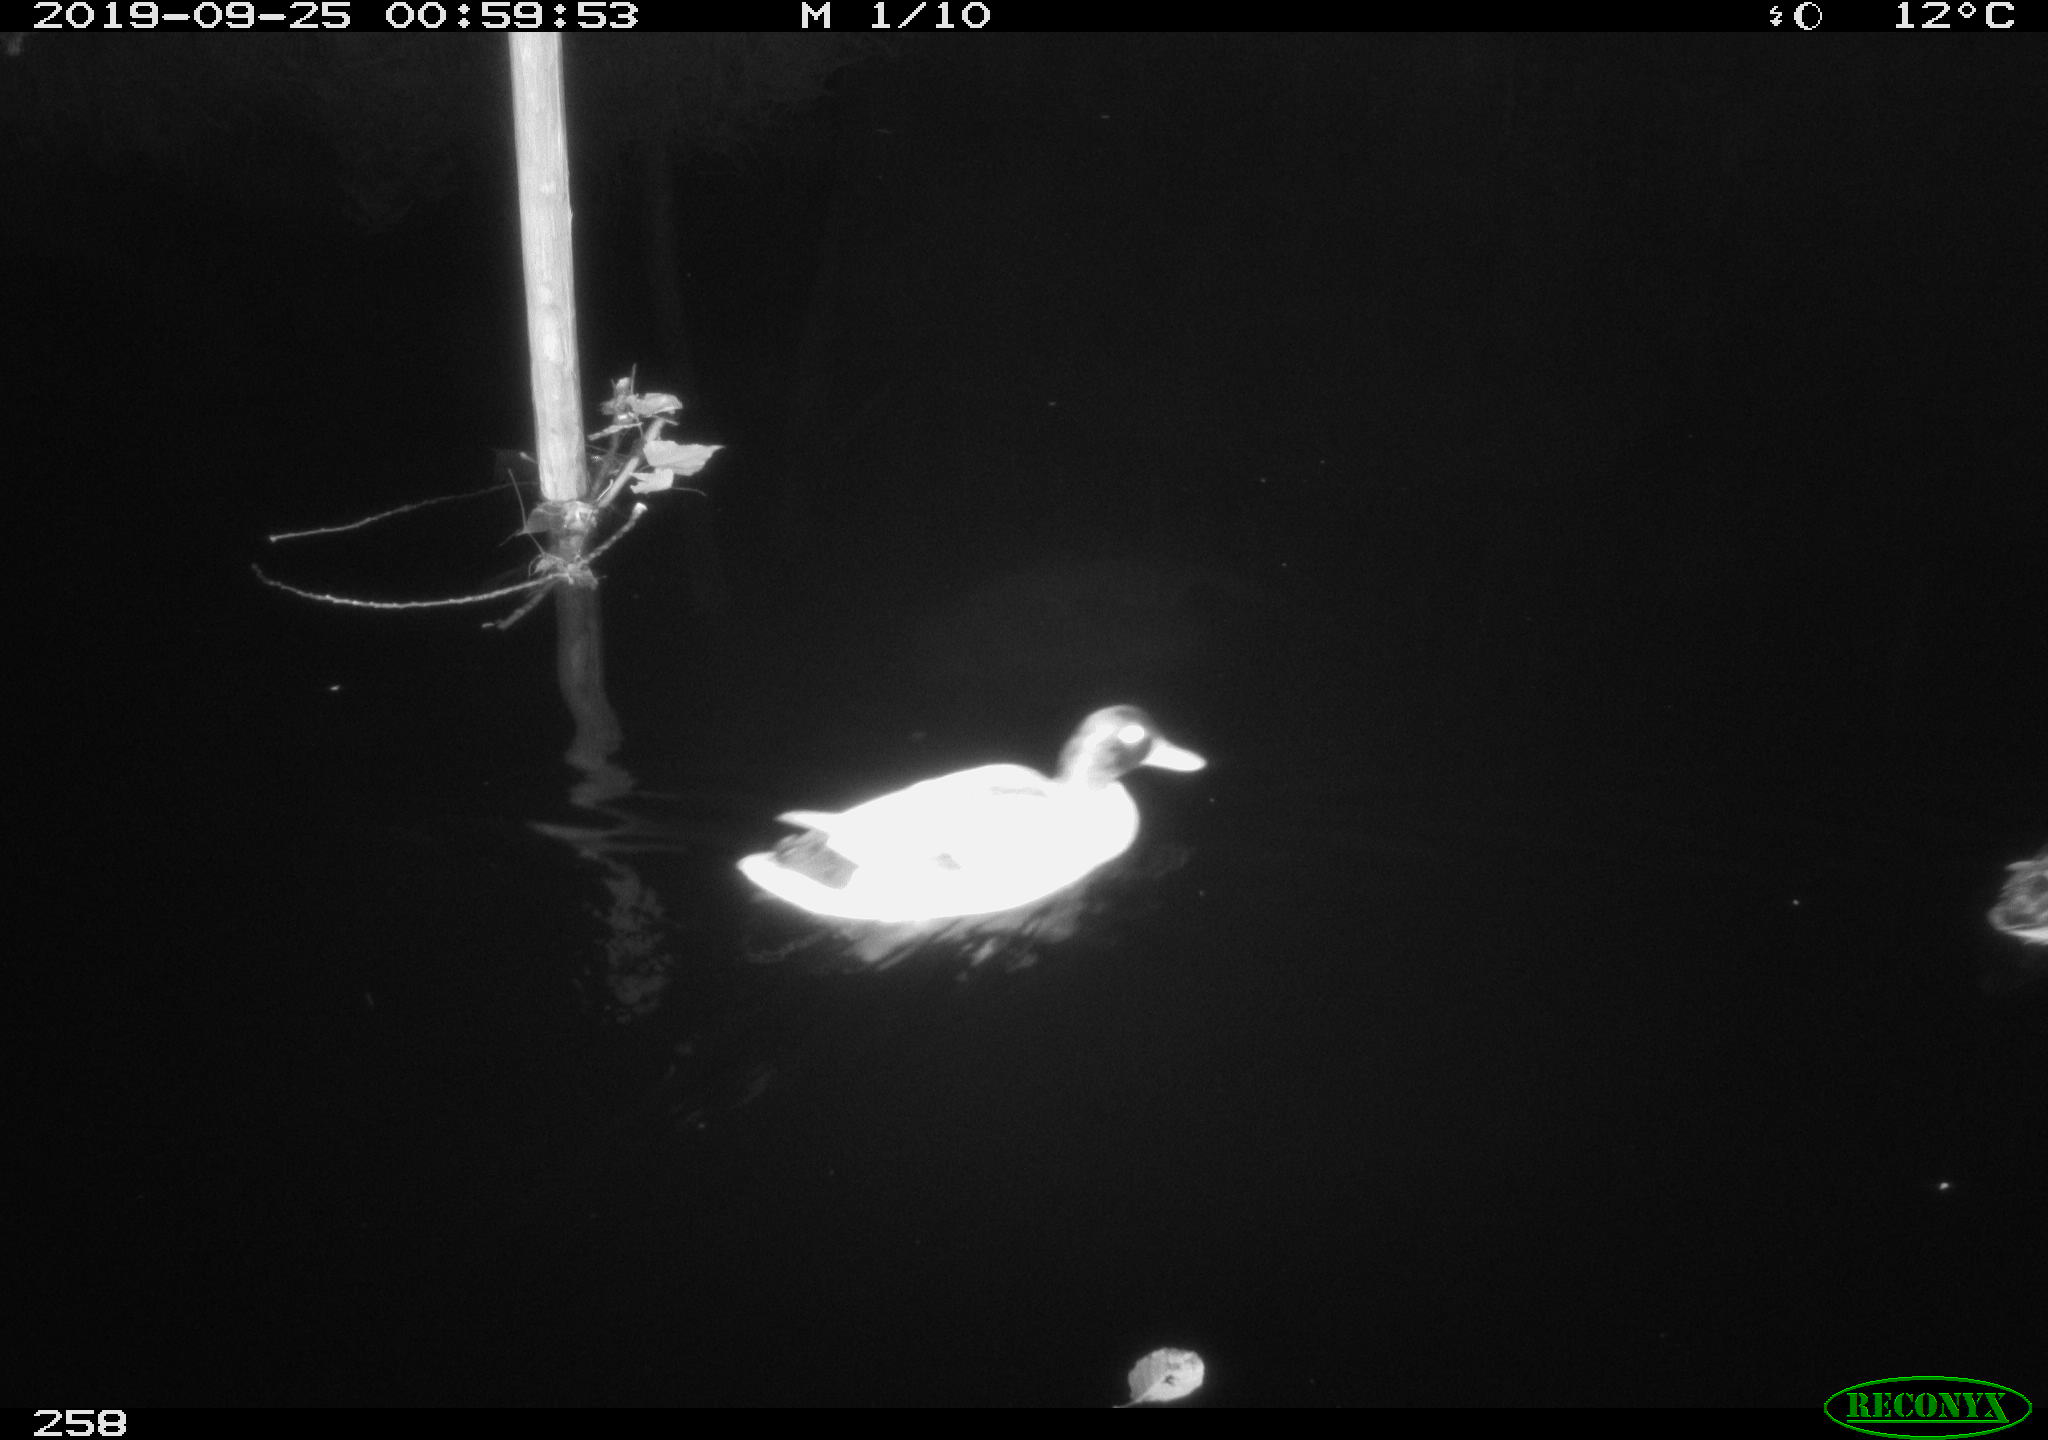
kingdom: Animalia
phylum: Chordata
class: Aves
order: Anseriformes
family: Anatidae
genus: Anas
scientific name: Anas platyrhynchos
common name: Mallard
